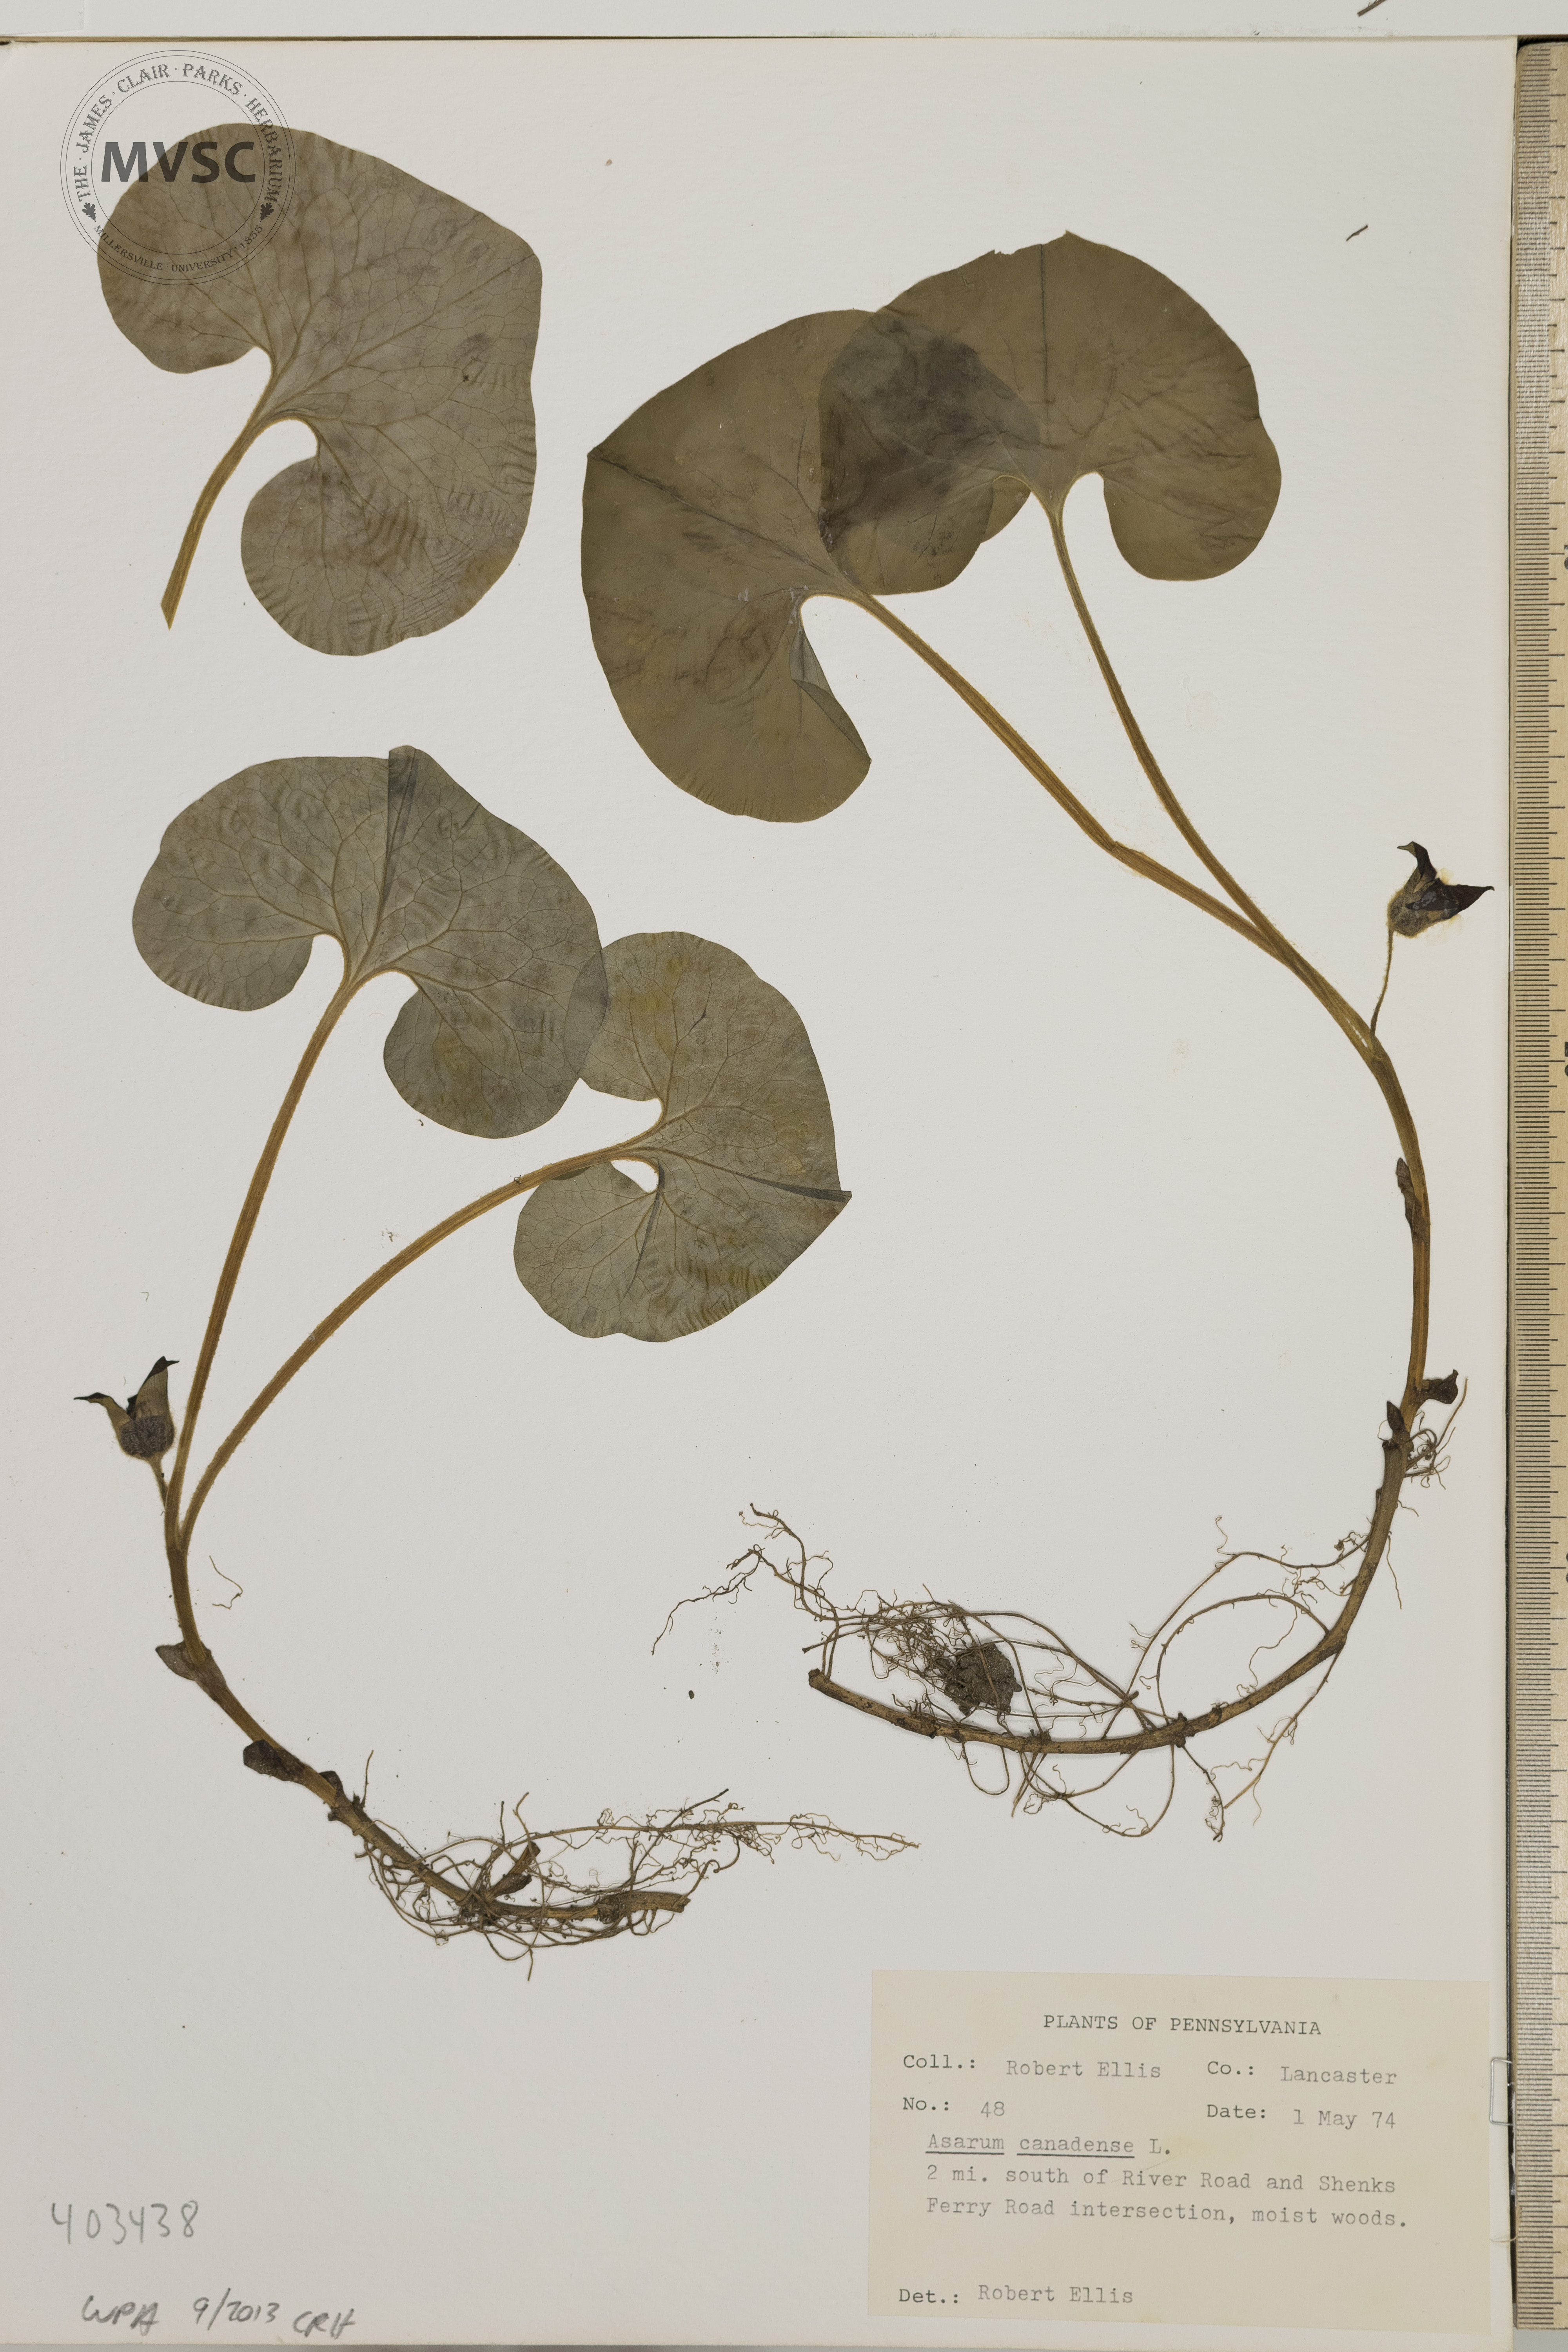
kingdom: Plantae
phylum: Tracheophyta
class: Magnoliopsida
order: Piperales
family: Aristolochiaceae
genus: Asarum
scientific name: Asarum canadense
